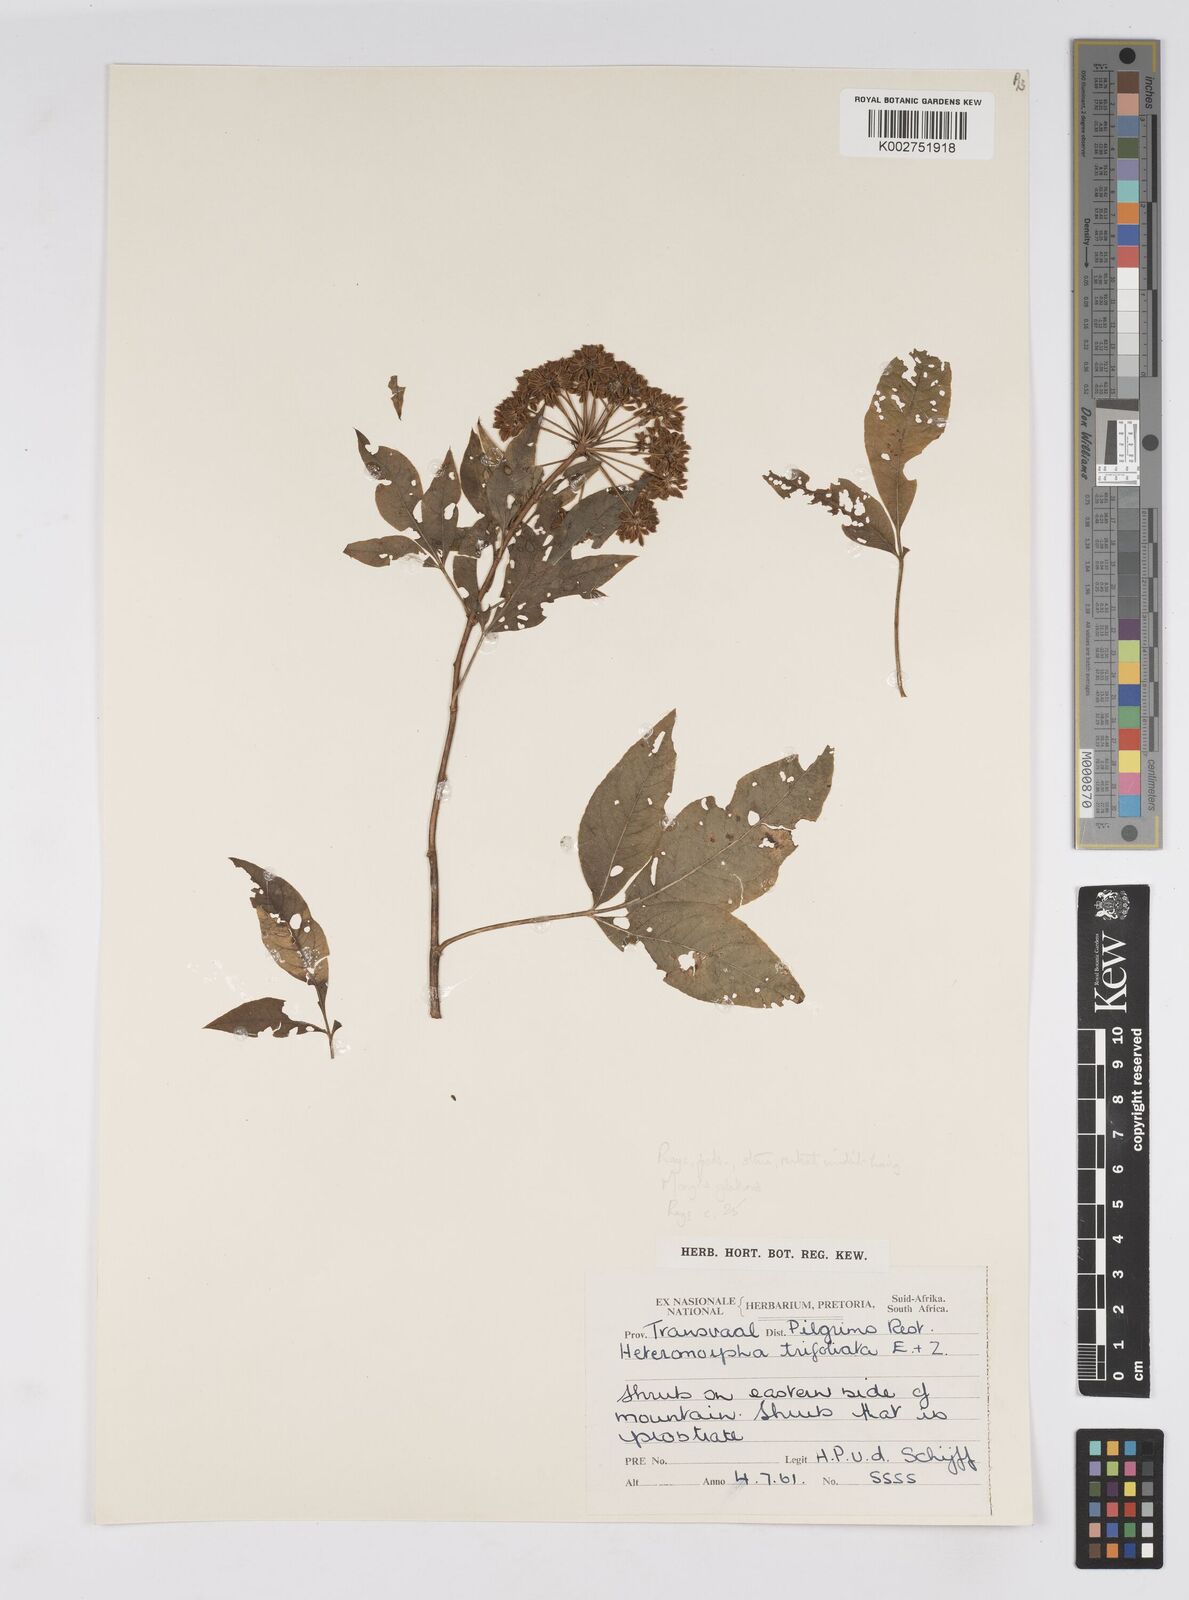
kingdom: Plantae
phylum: Tracheophyta
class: Magnoliopsida
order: Apiales
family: Apiaceae
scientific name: Apiaceae
